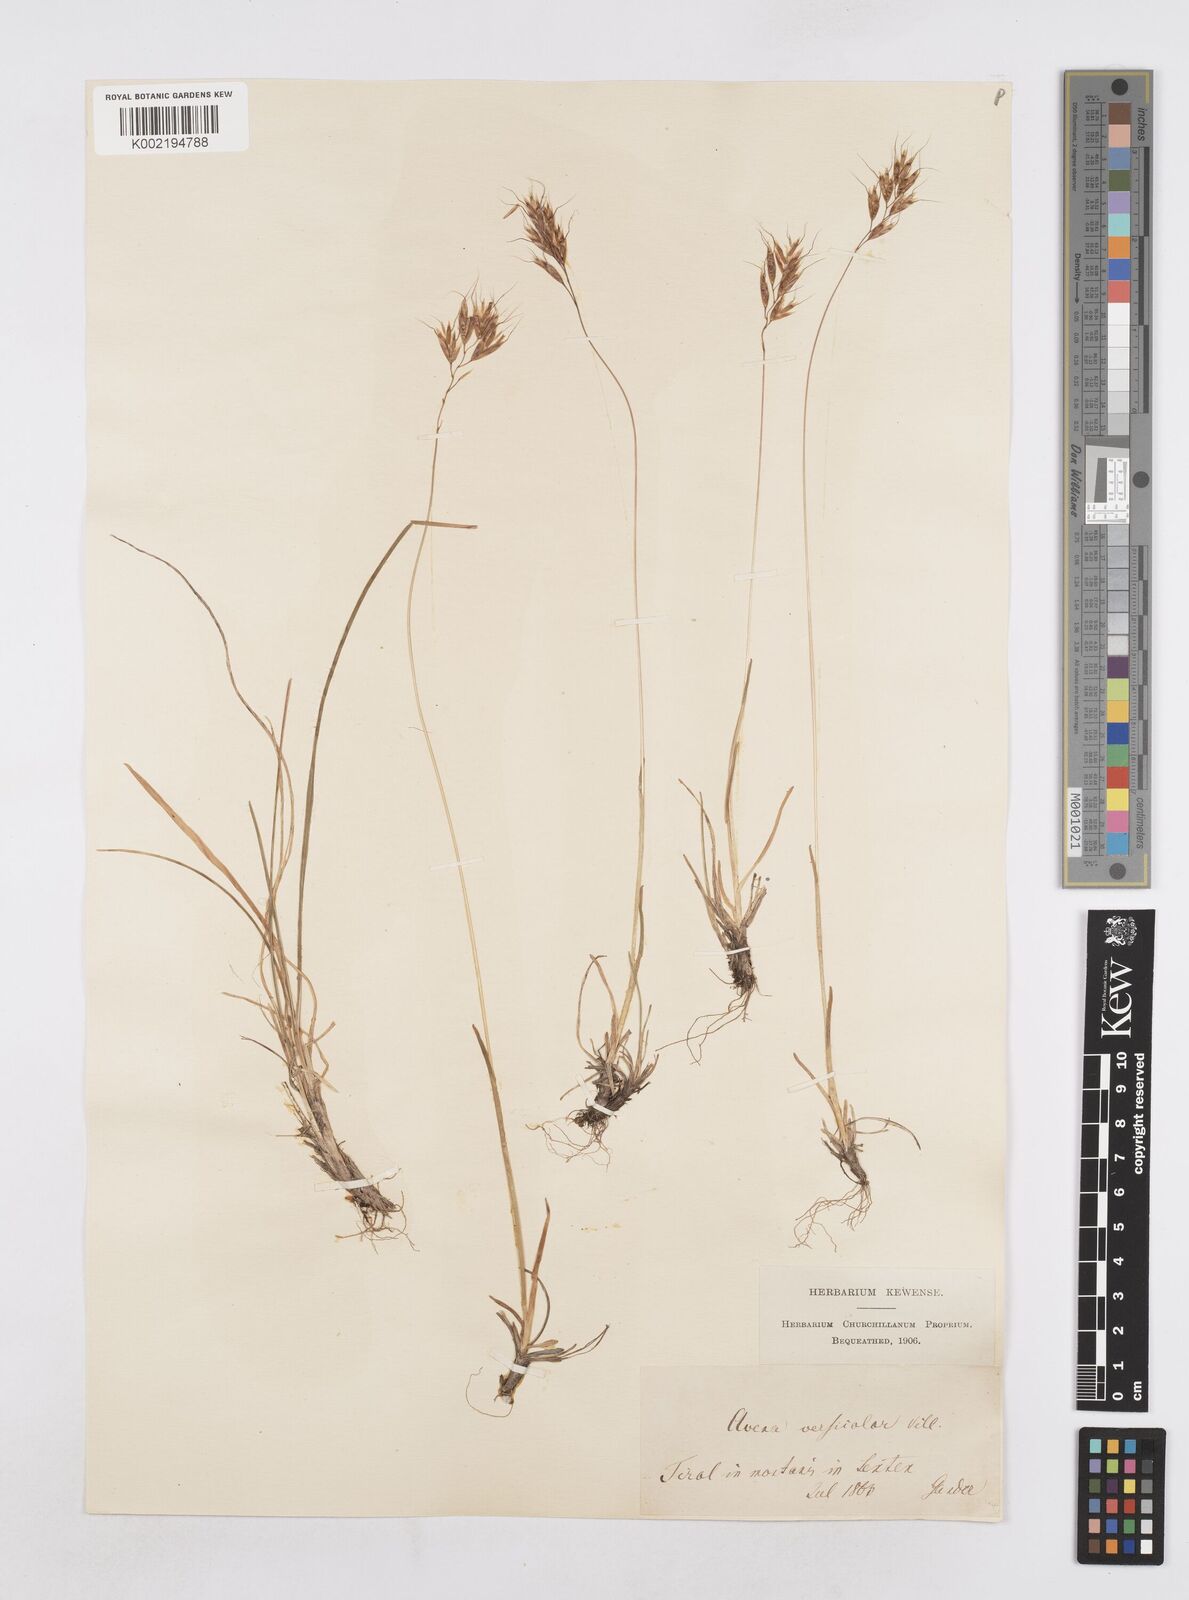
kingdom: Plantae
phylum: Tracheophyta
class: Liliopsida
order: Poales
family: Poaceae
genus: Helictochloa
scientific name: Helictochloa versicolor
